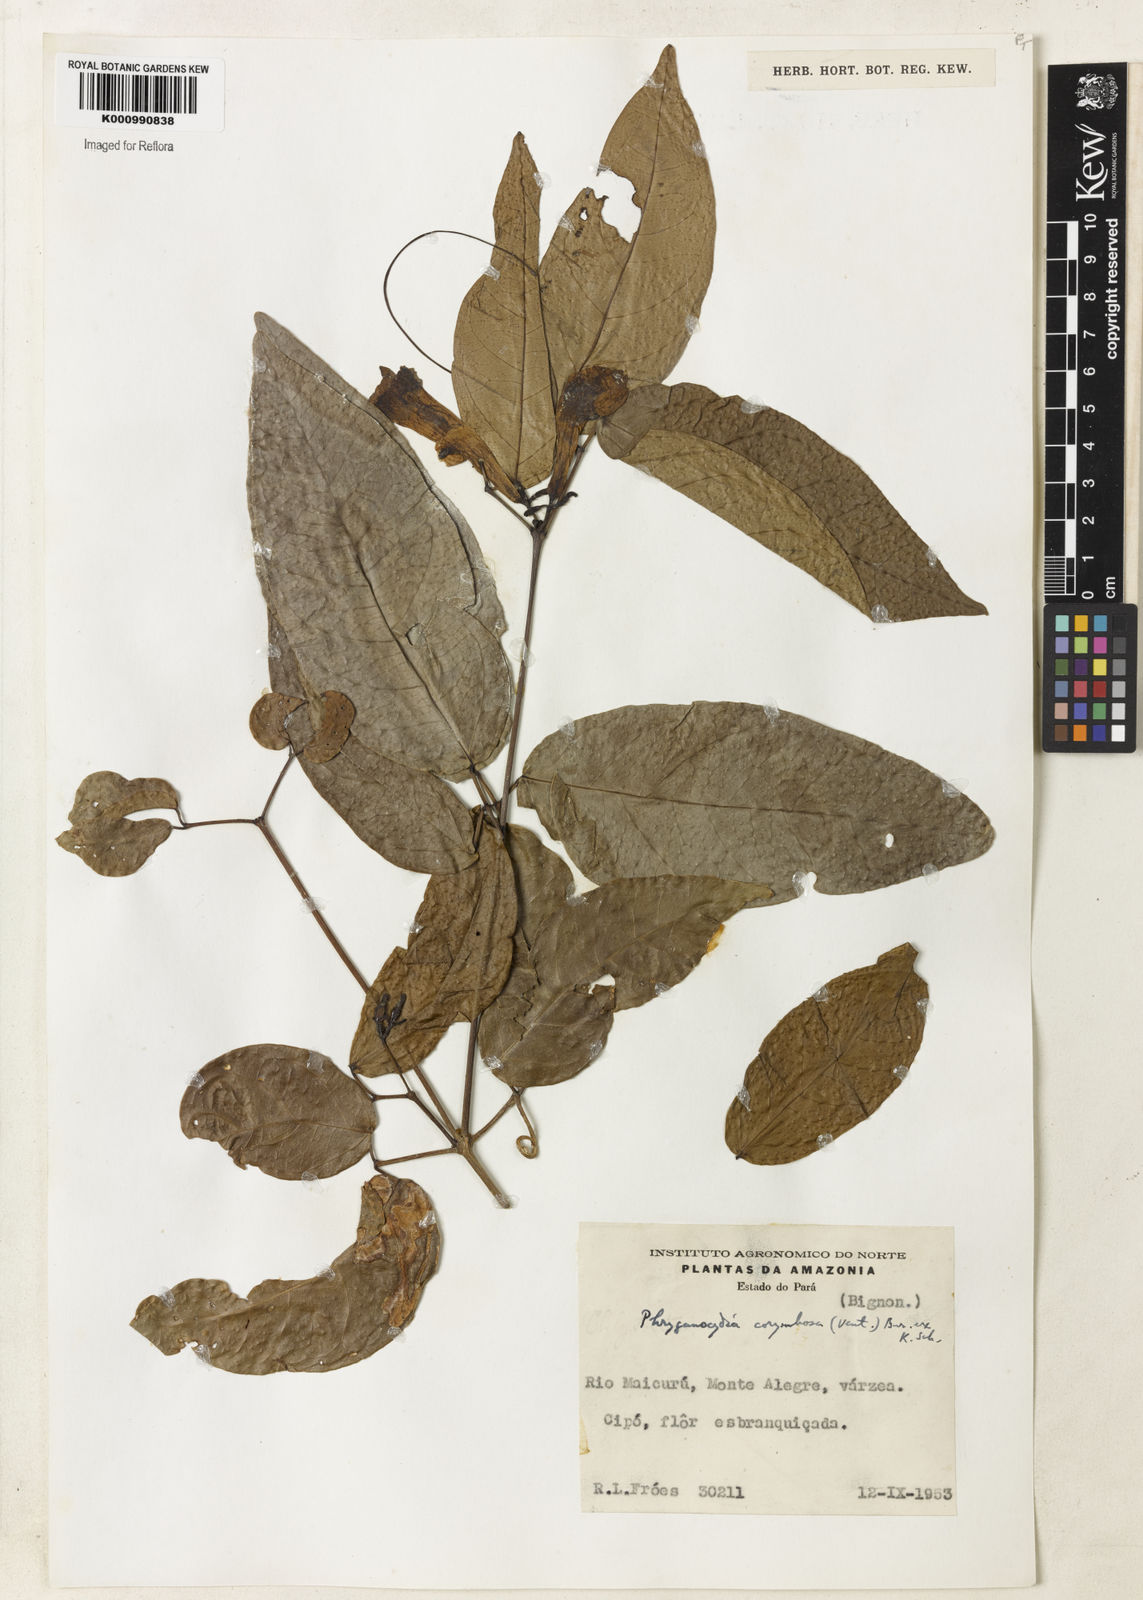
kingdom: Plantae
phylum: Tracheophyta
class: Magnoliopsida
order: Lamiales
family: Bignoniaceae
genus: Bignonia
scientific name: Bignonia corymbosa
